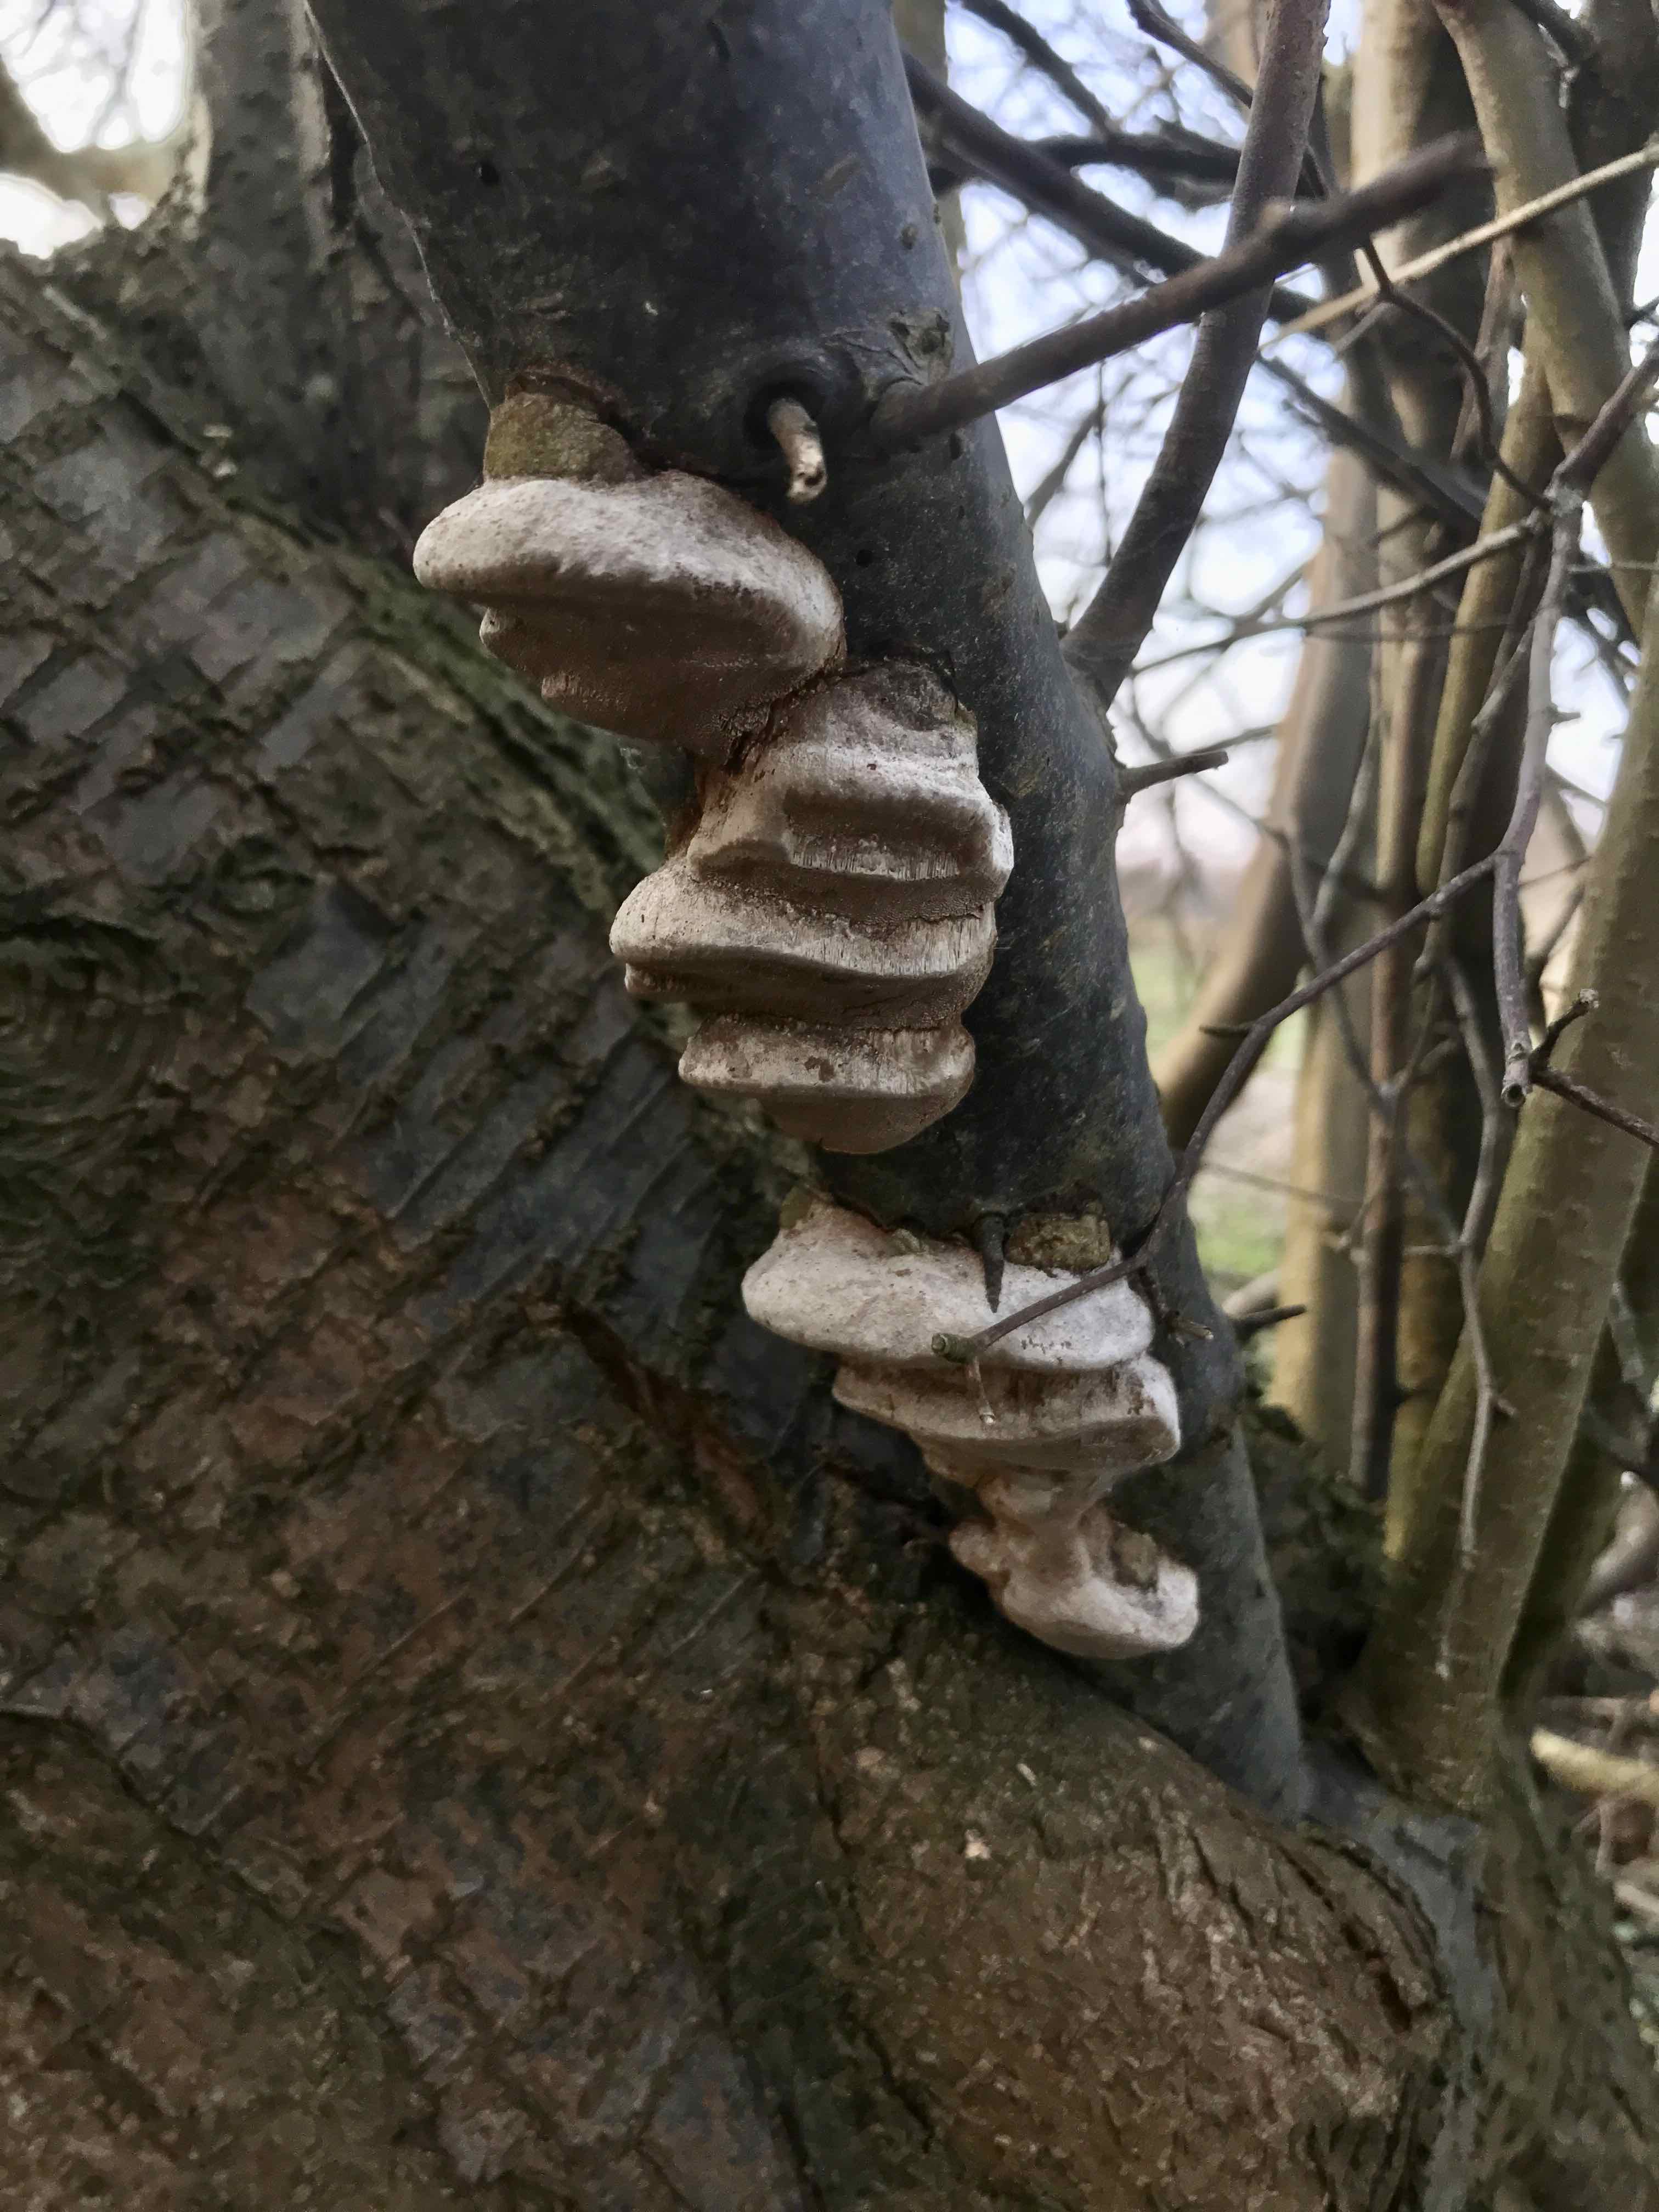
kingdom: Fungi
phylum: Basidiomycota
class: Agaricomycetes
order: Hymenochaetales
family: Hymenochaetaceae
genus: Phellinus
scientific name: Phellinus pomaceus
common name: blomme-ildporesvamp
